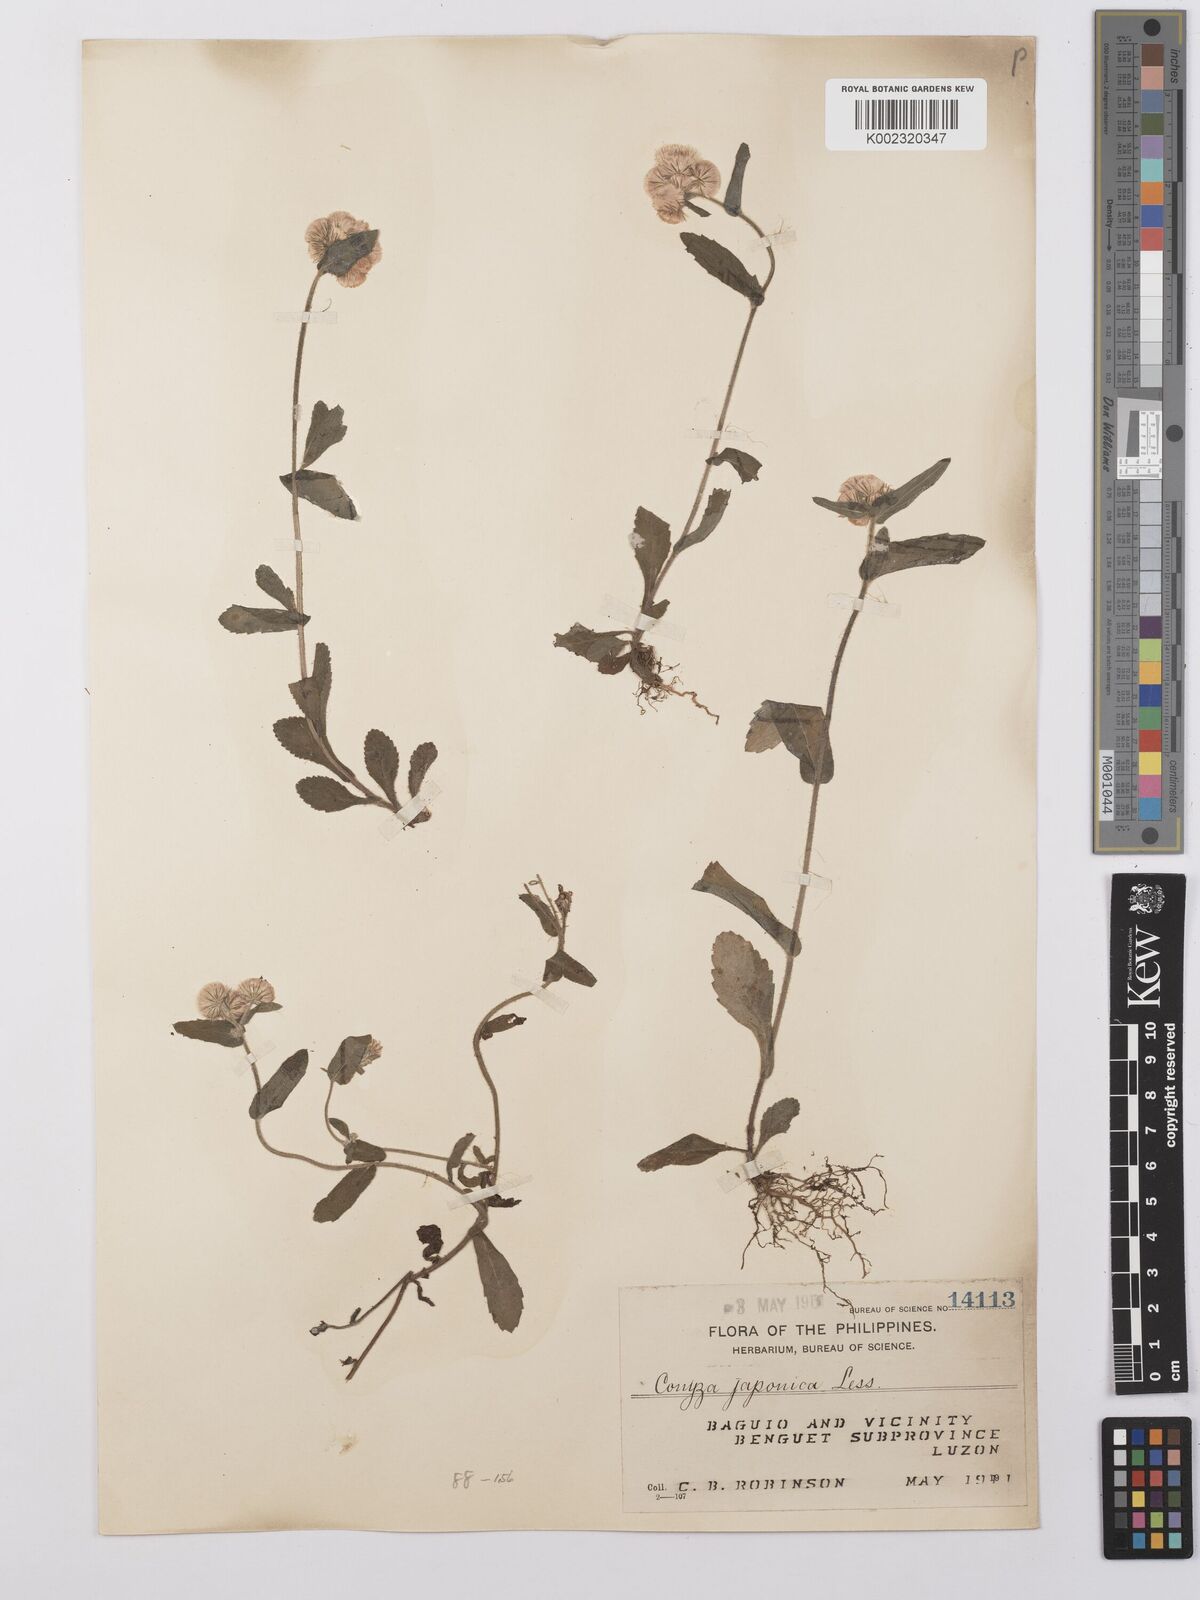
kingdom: Plantae
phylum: Tracheophyta
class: Magnoliopsida
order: Asterales
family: Asteraceae
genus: Eschenbachia
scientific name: Eschenbachia japonica
